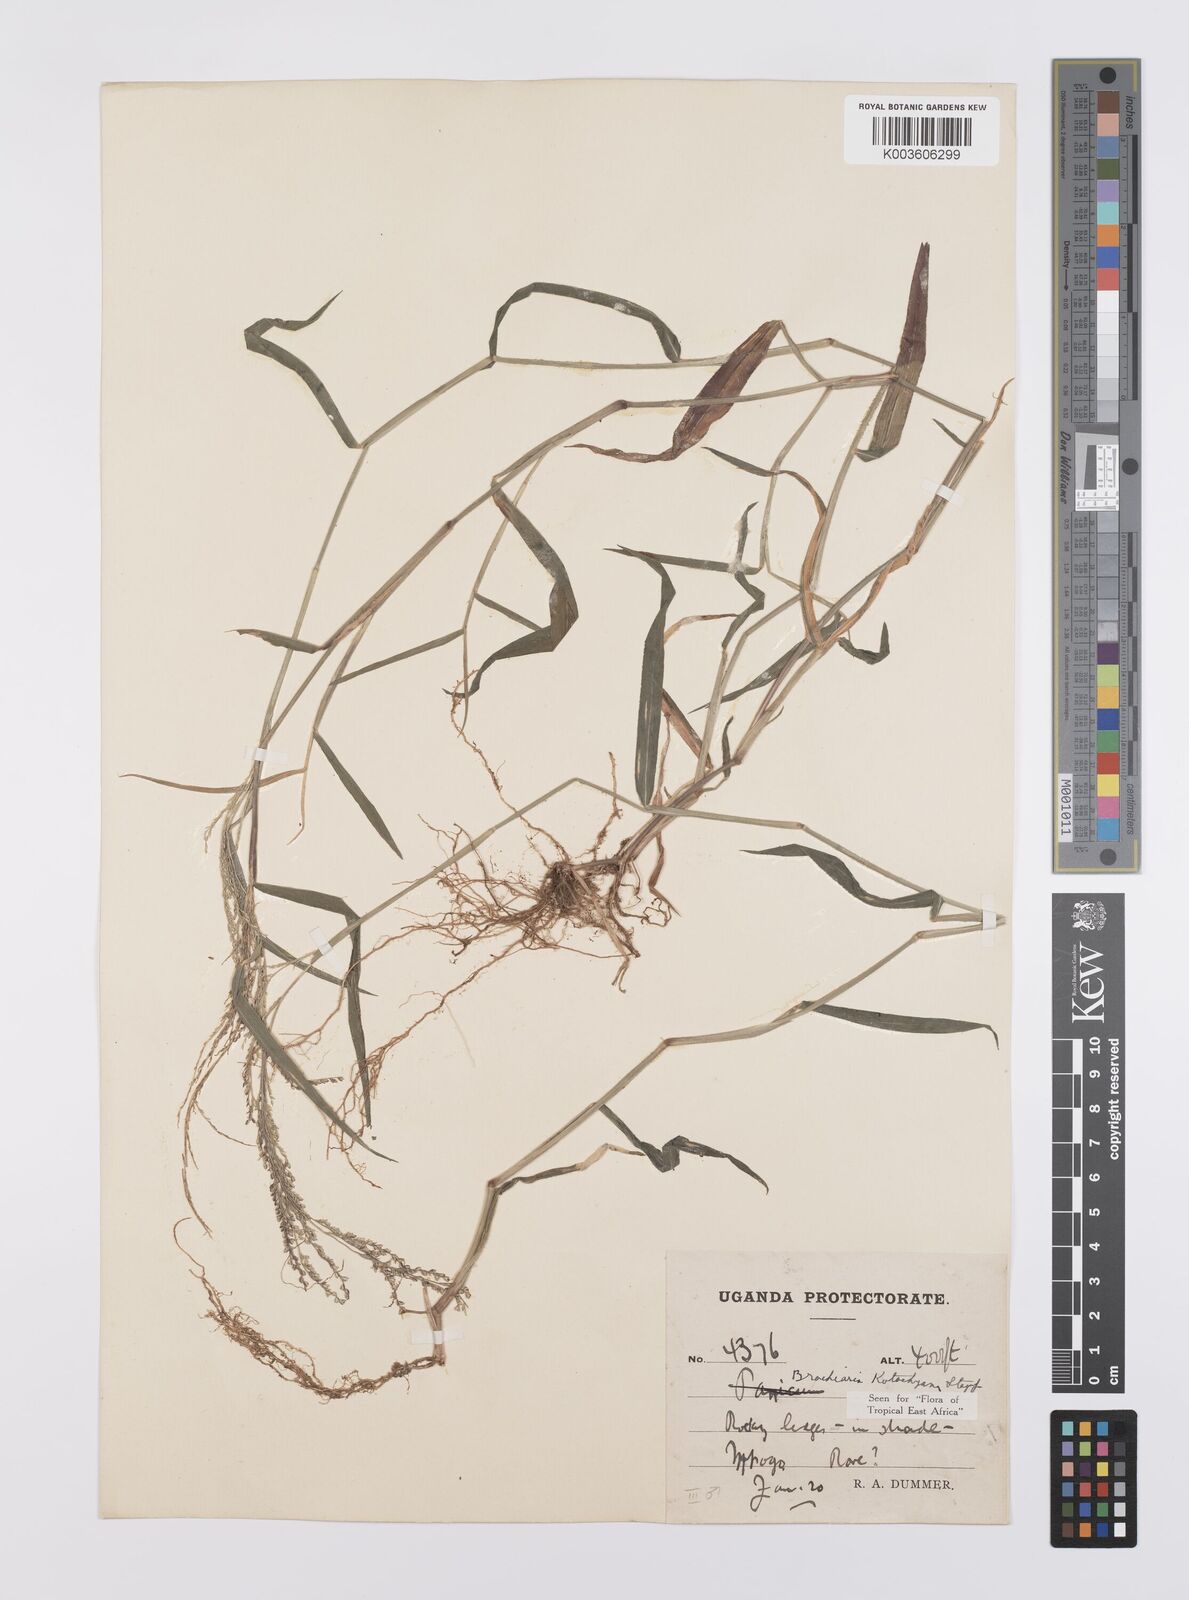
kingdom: Plantae
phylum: Tracheophyta
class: Liliopsida
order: Poales
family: Poaceae
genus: Urochloa
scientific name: Urochloa comata
